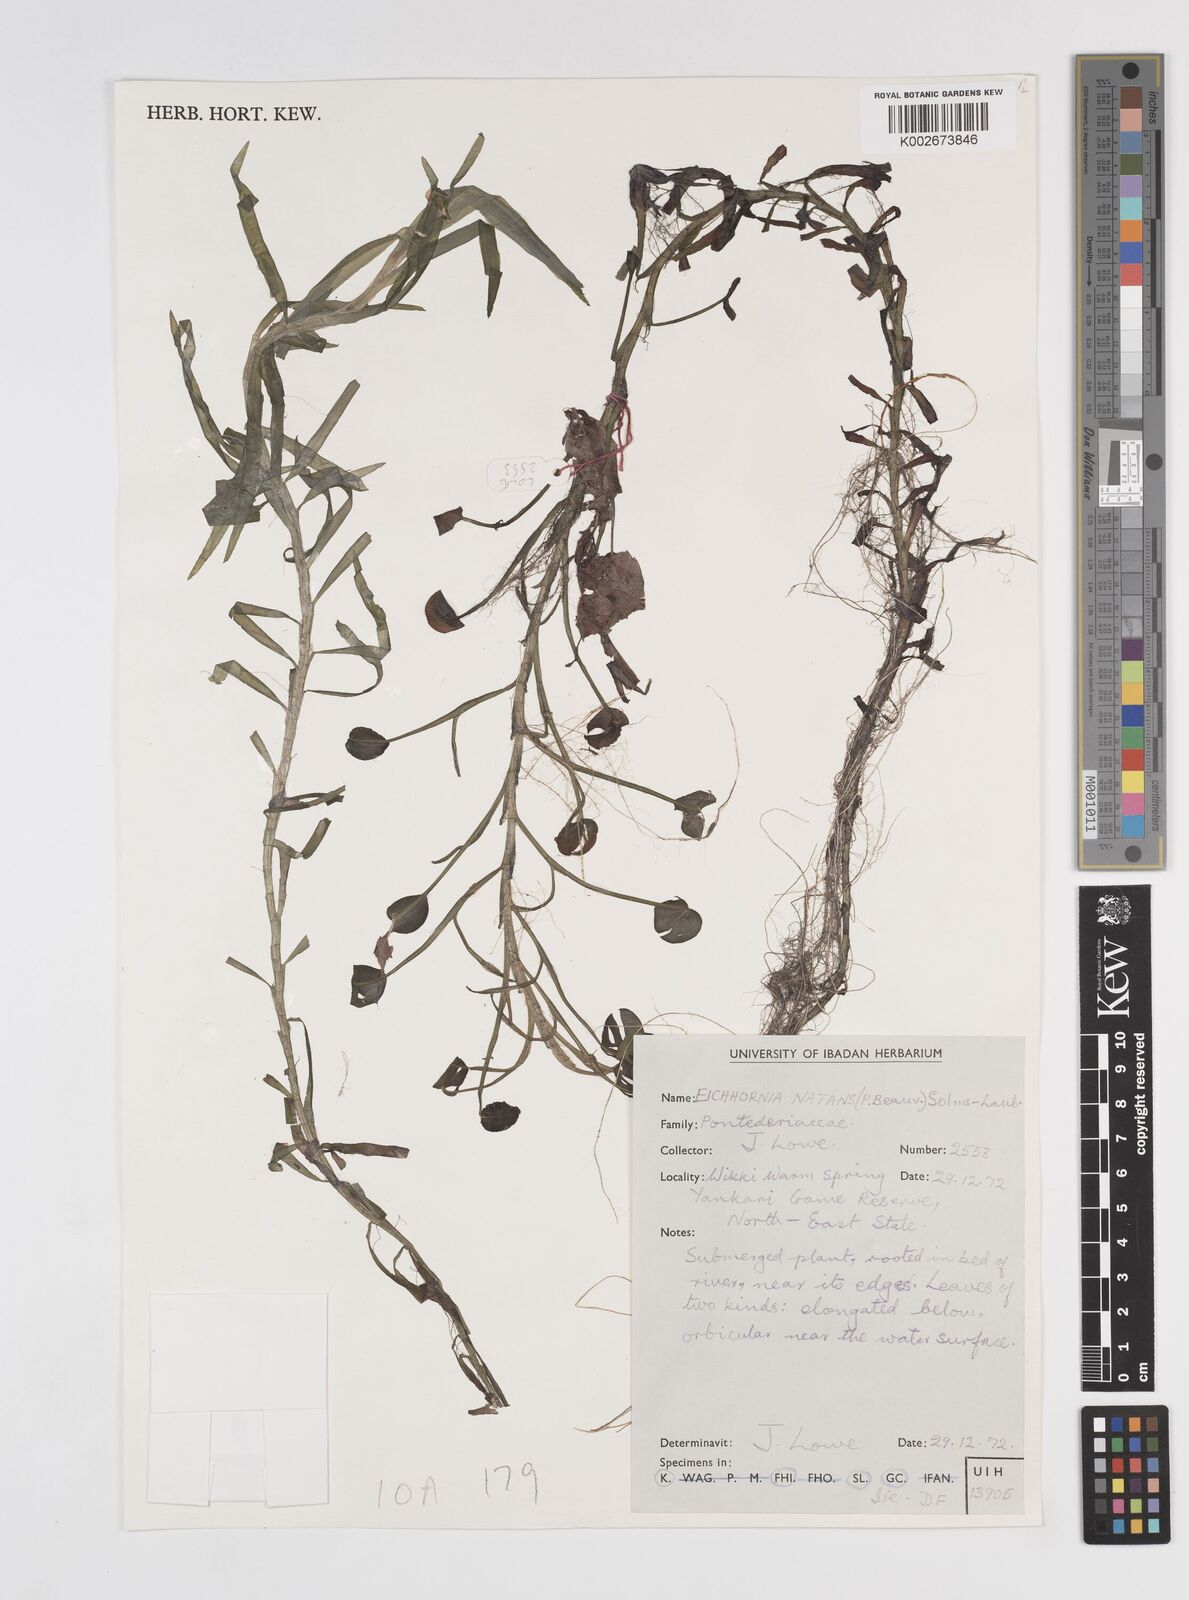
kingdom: Plantae
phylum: Tracheophyta
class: Liliopsida
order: Commelinales
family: Pontederiaceae
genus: Pontederia
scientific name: Pontederia diversifolia
